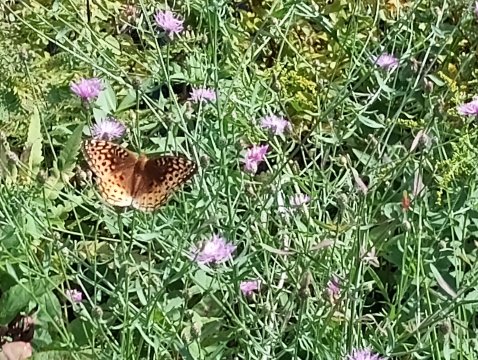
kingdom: Animalia
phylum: Arthropoda
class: Insecta
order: Lepidoptera
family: Nymphalidae
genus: Speyeria
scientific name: Speyeria
